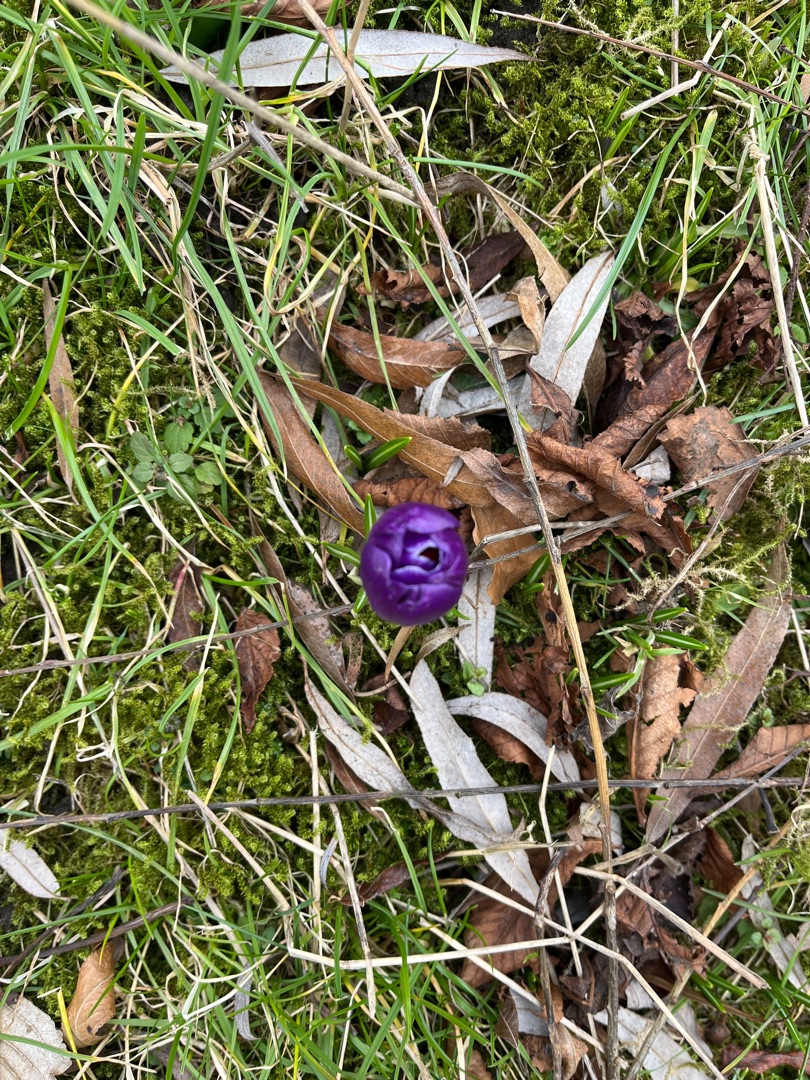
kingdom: Plantae
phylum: Tracheophyta
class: Liliopsida
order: Asparagales
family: Iridaceae
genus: Crocus
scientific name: Crocus vernus
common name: Vår-krokus
